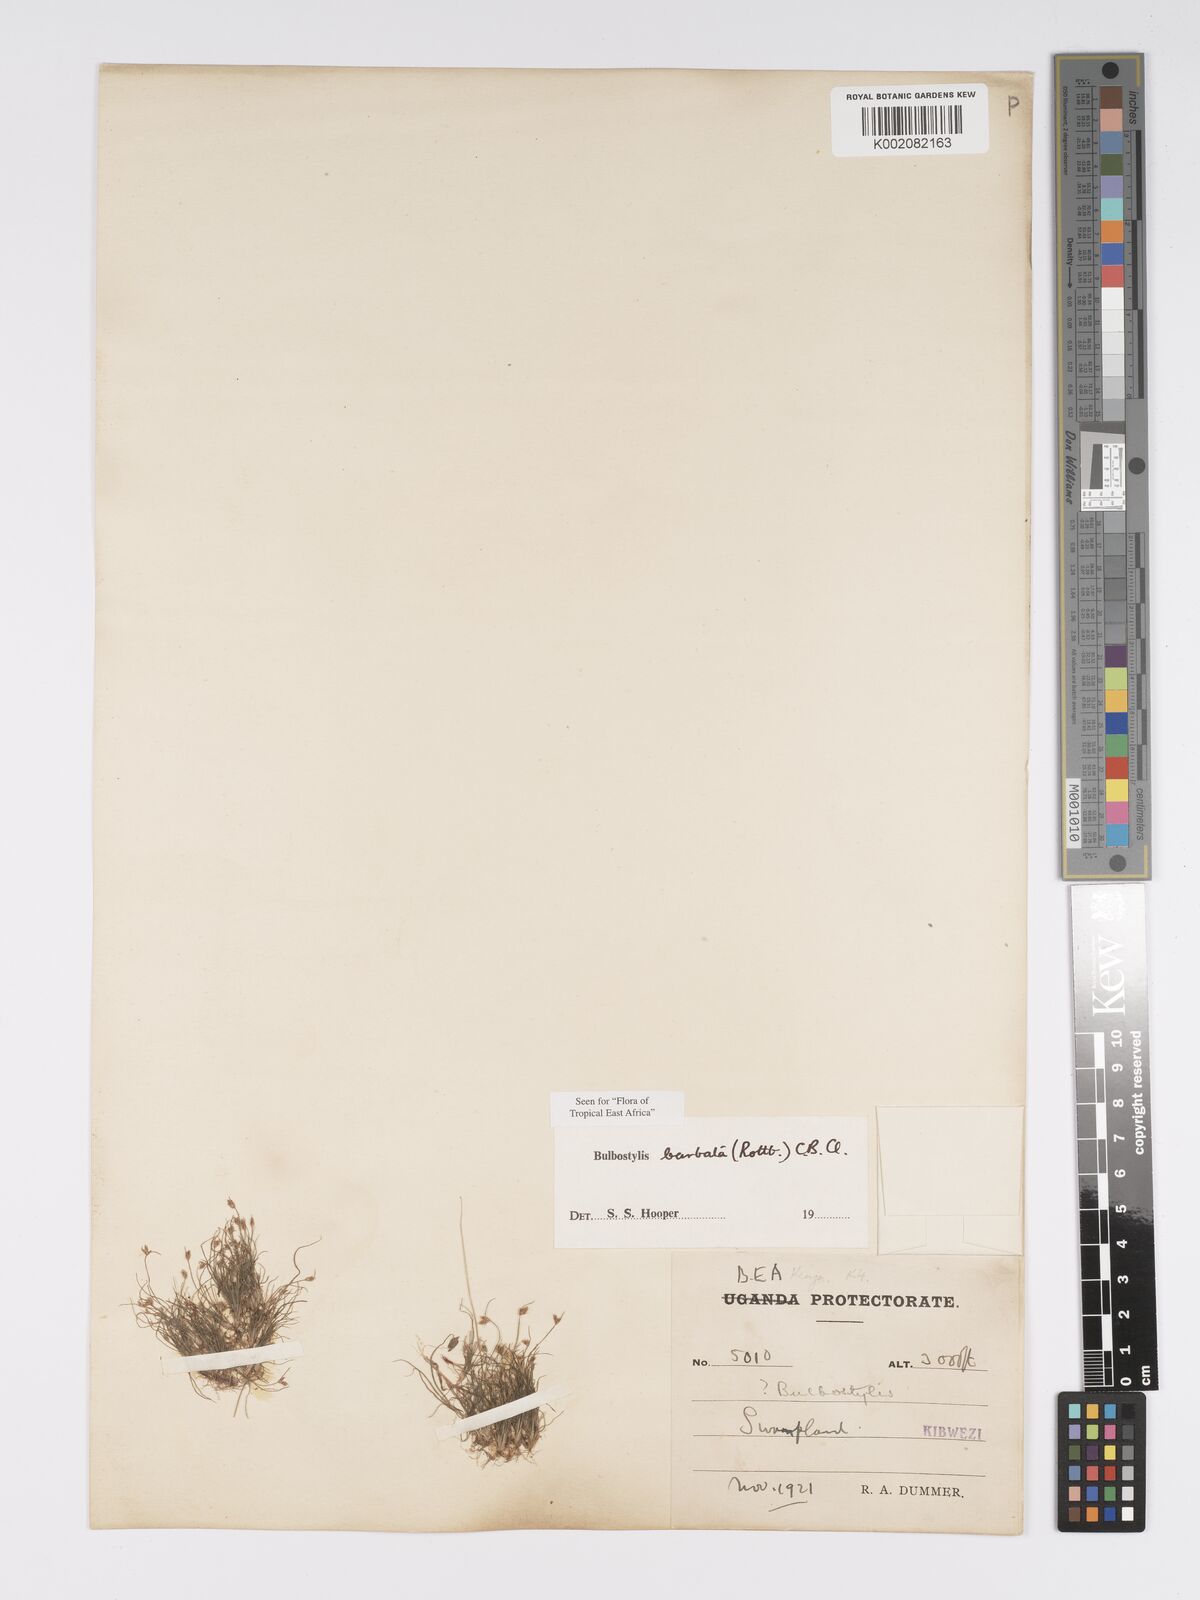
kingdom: Plantae
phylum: Tracheophyta
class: Liliopsida
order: Poales
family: Cyperaceae
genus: Bulbostylis
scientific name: Bulbostylis barbata
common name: Watergrass
